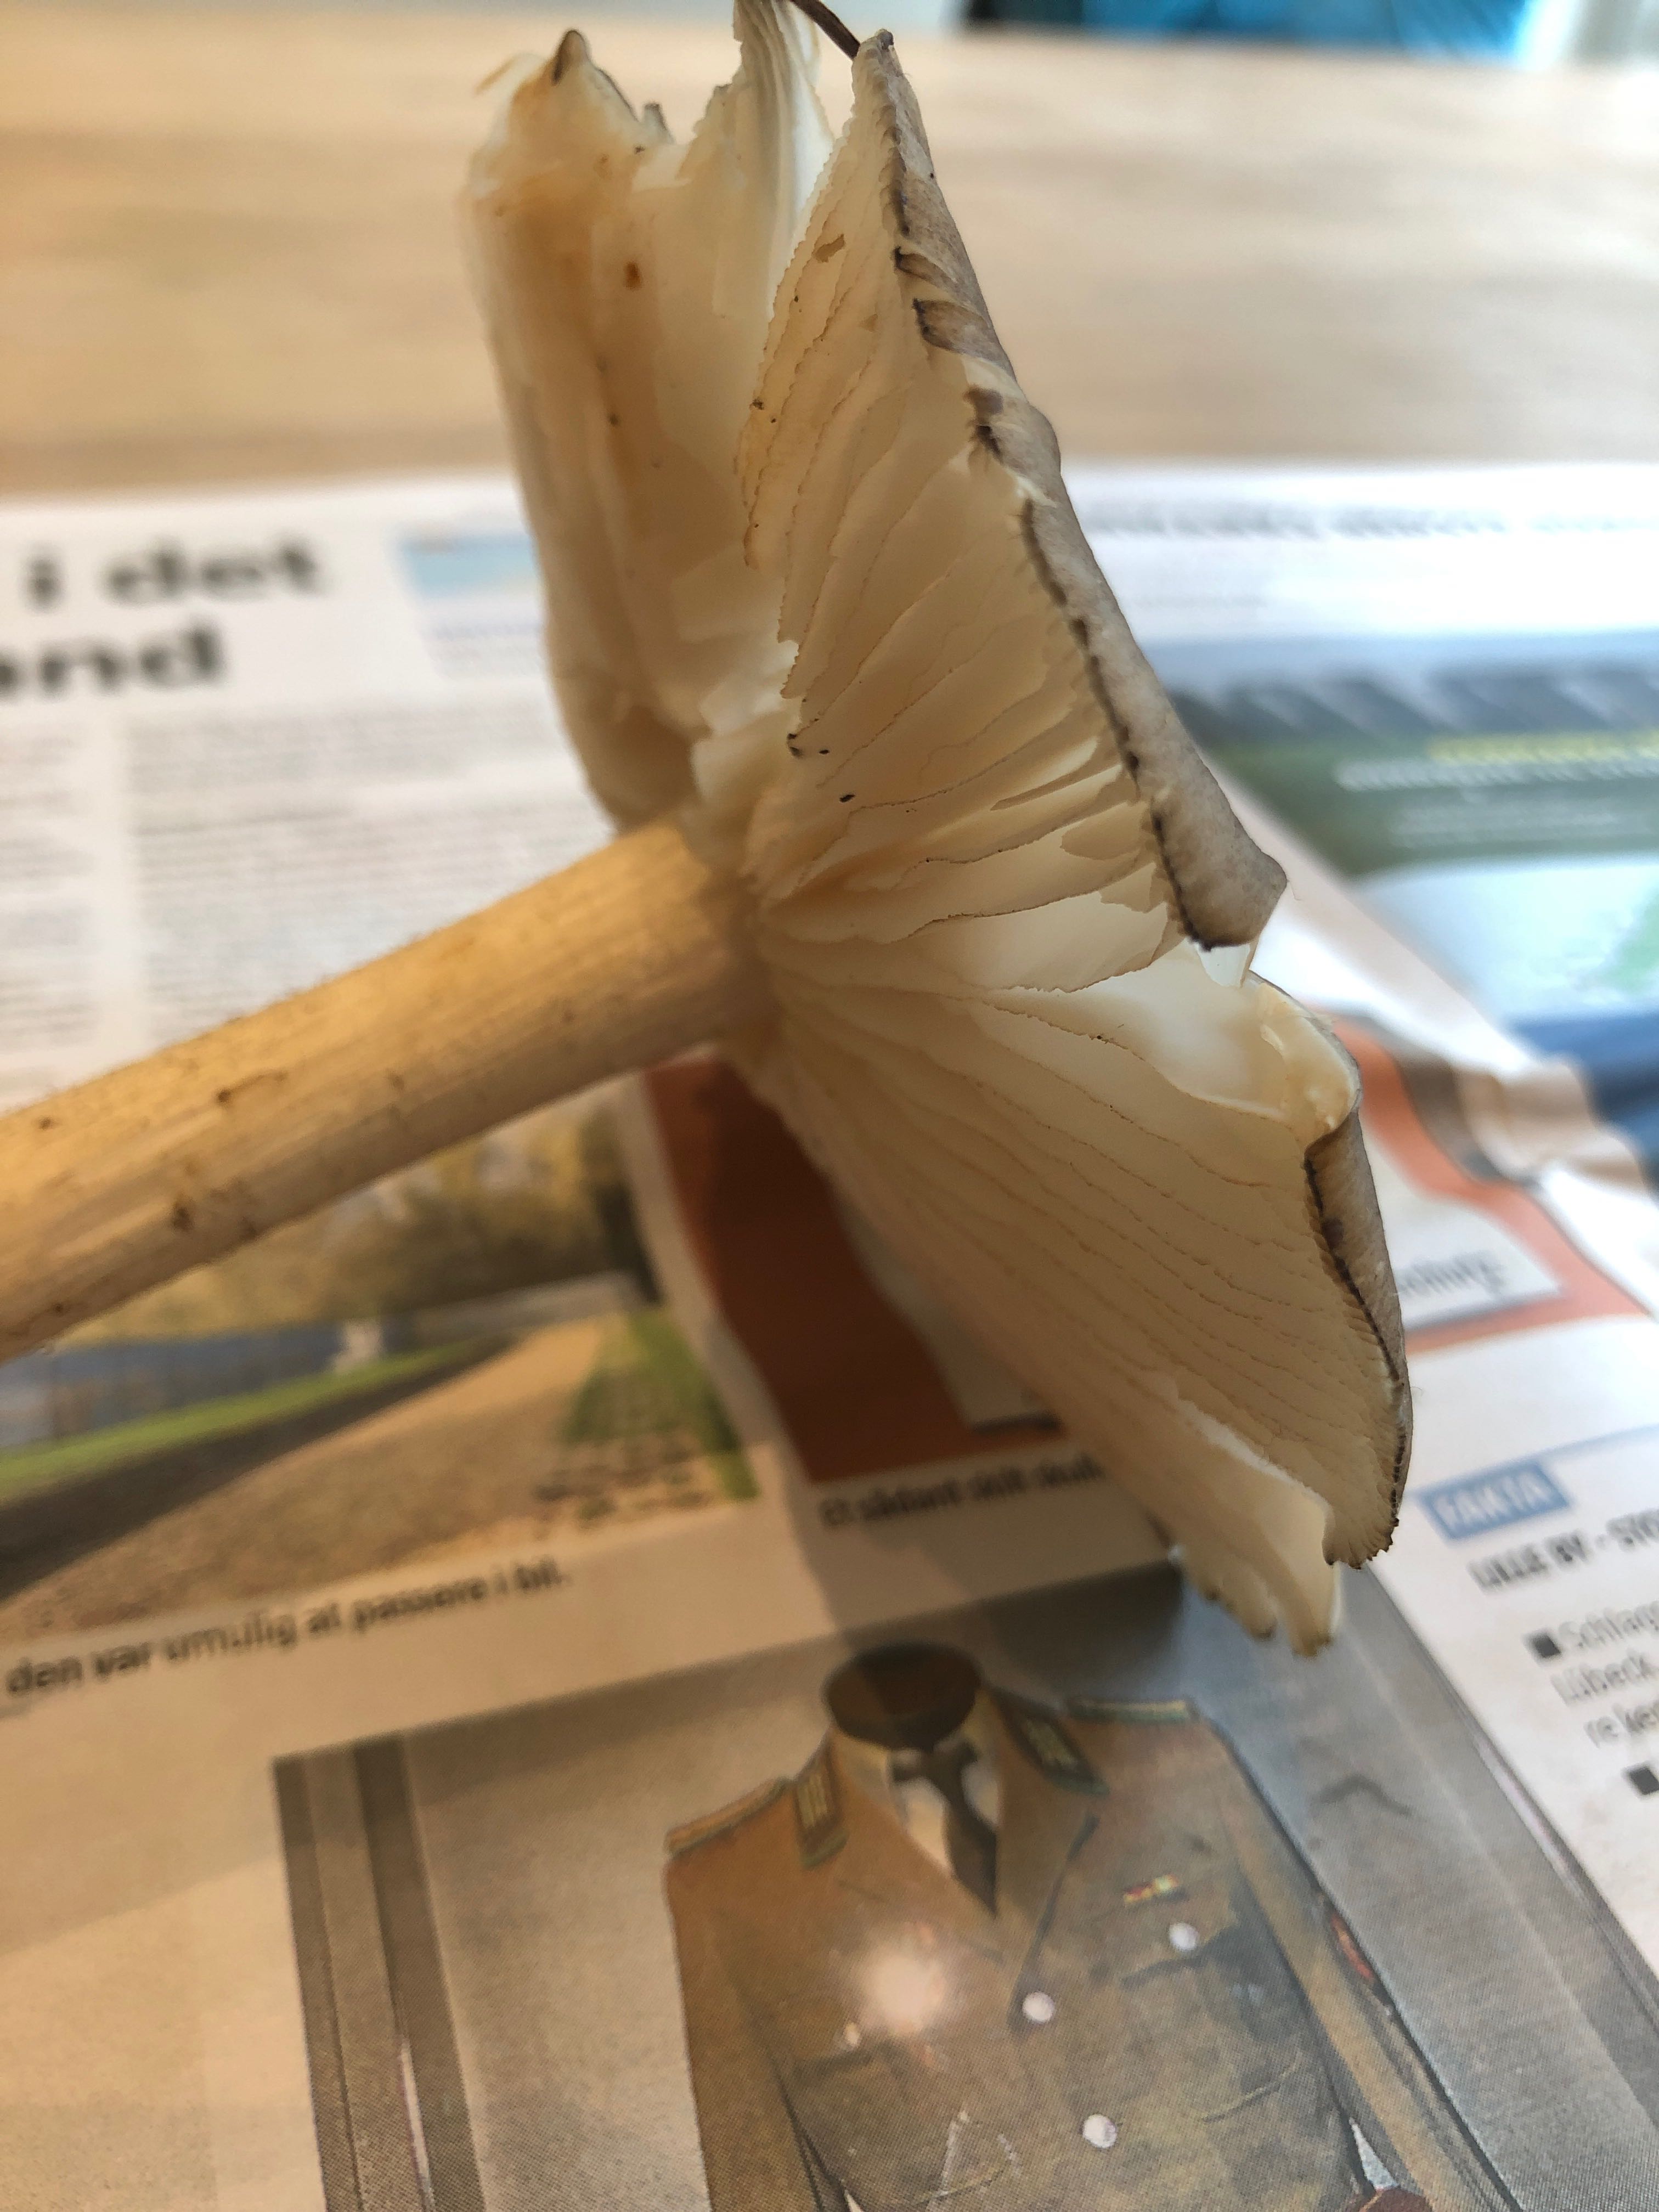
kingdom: Fungi
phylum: Basidiomycota
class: Agaricomycetes
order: Agaricales
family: Tricholomataceae
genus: Megacollybia
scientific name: Megacollybia platyphylla
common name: bredbladet væbnerhat
